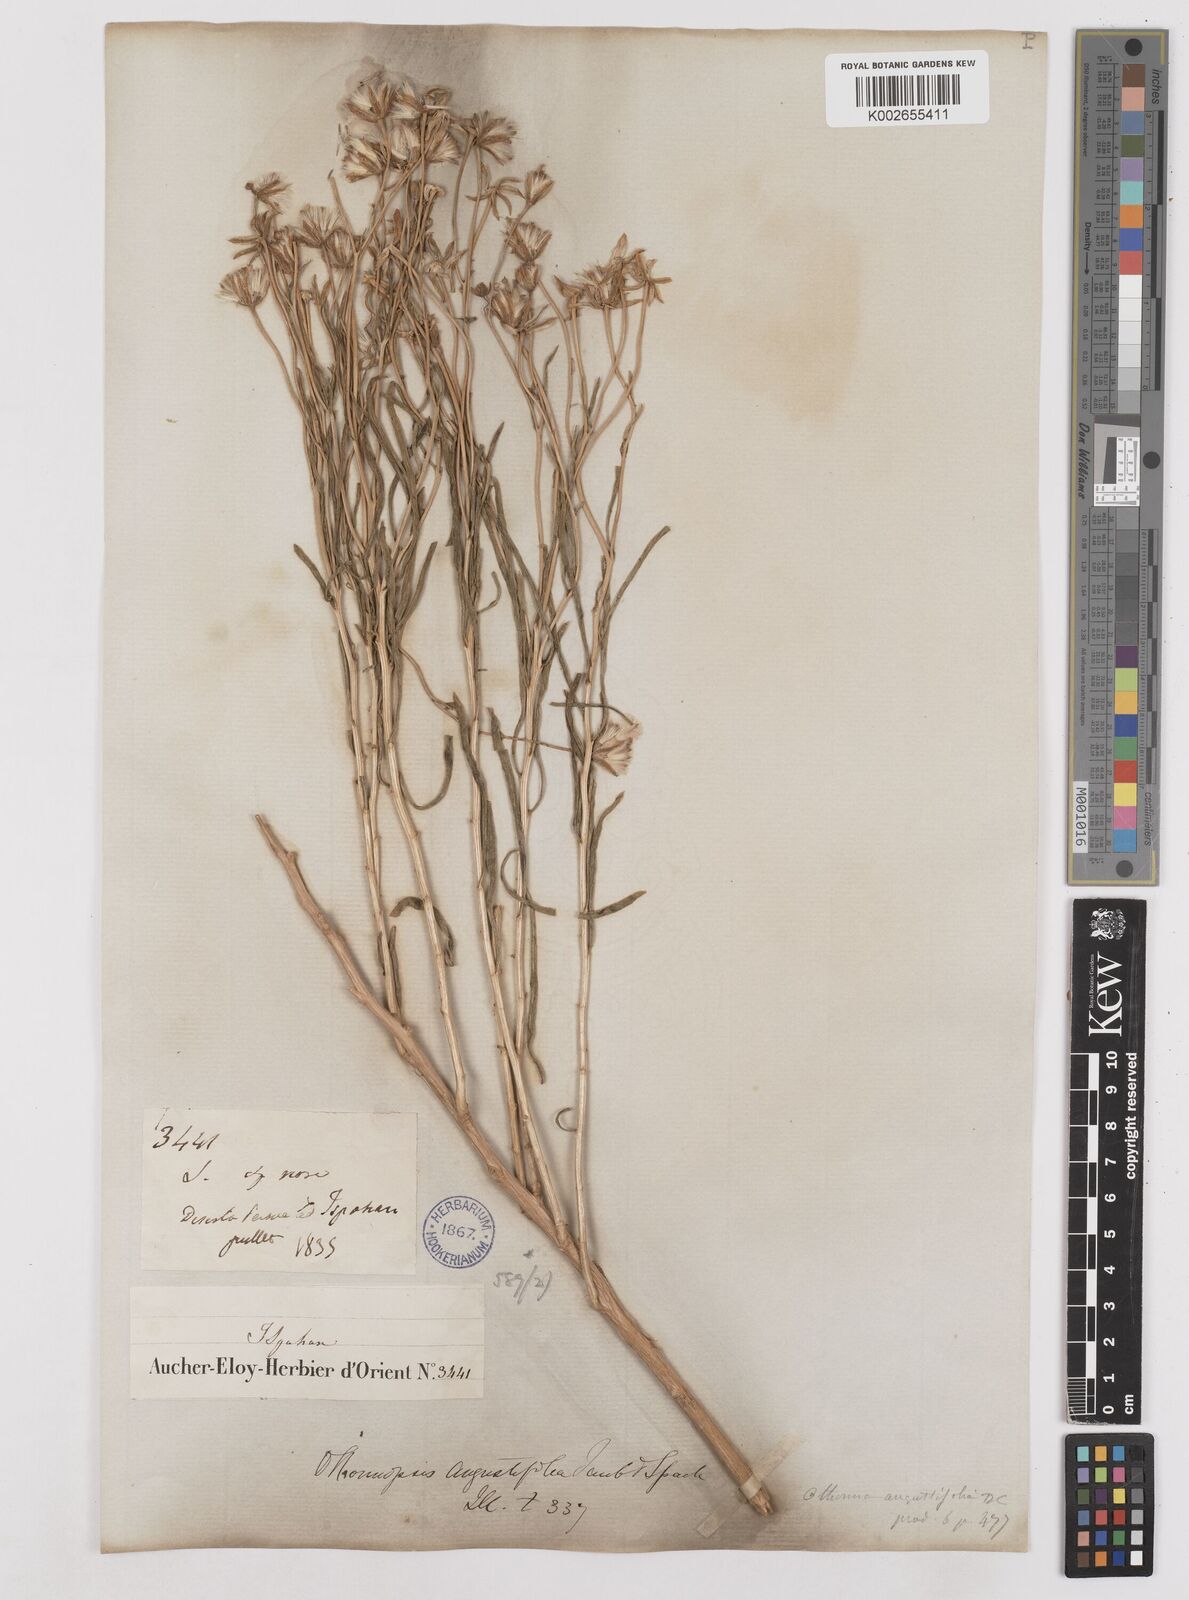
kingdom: Plantae
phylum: Tracheophyta
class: Magnoliopsida
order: Asterales
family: Asteraceae
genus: Hertia
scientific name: Hertia angustifolia
